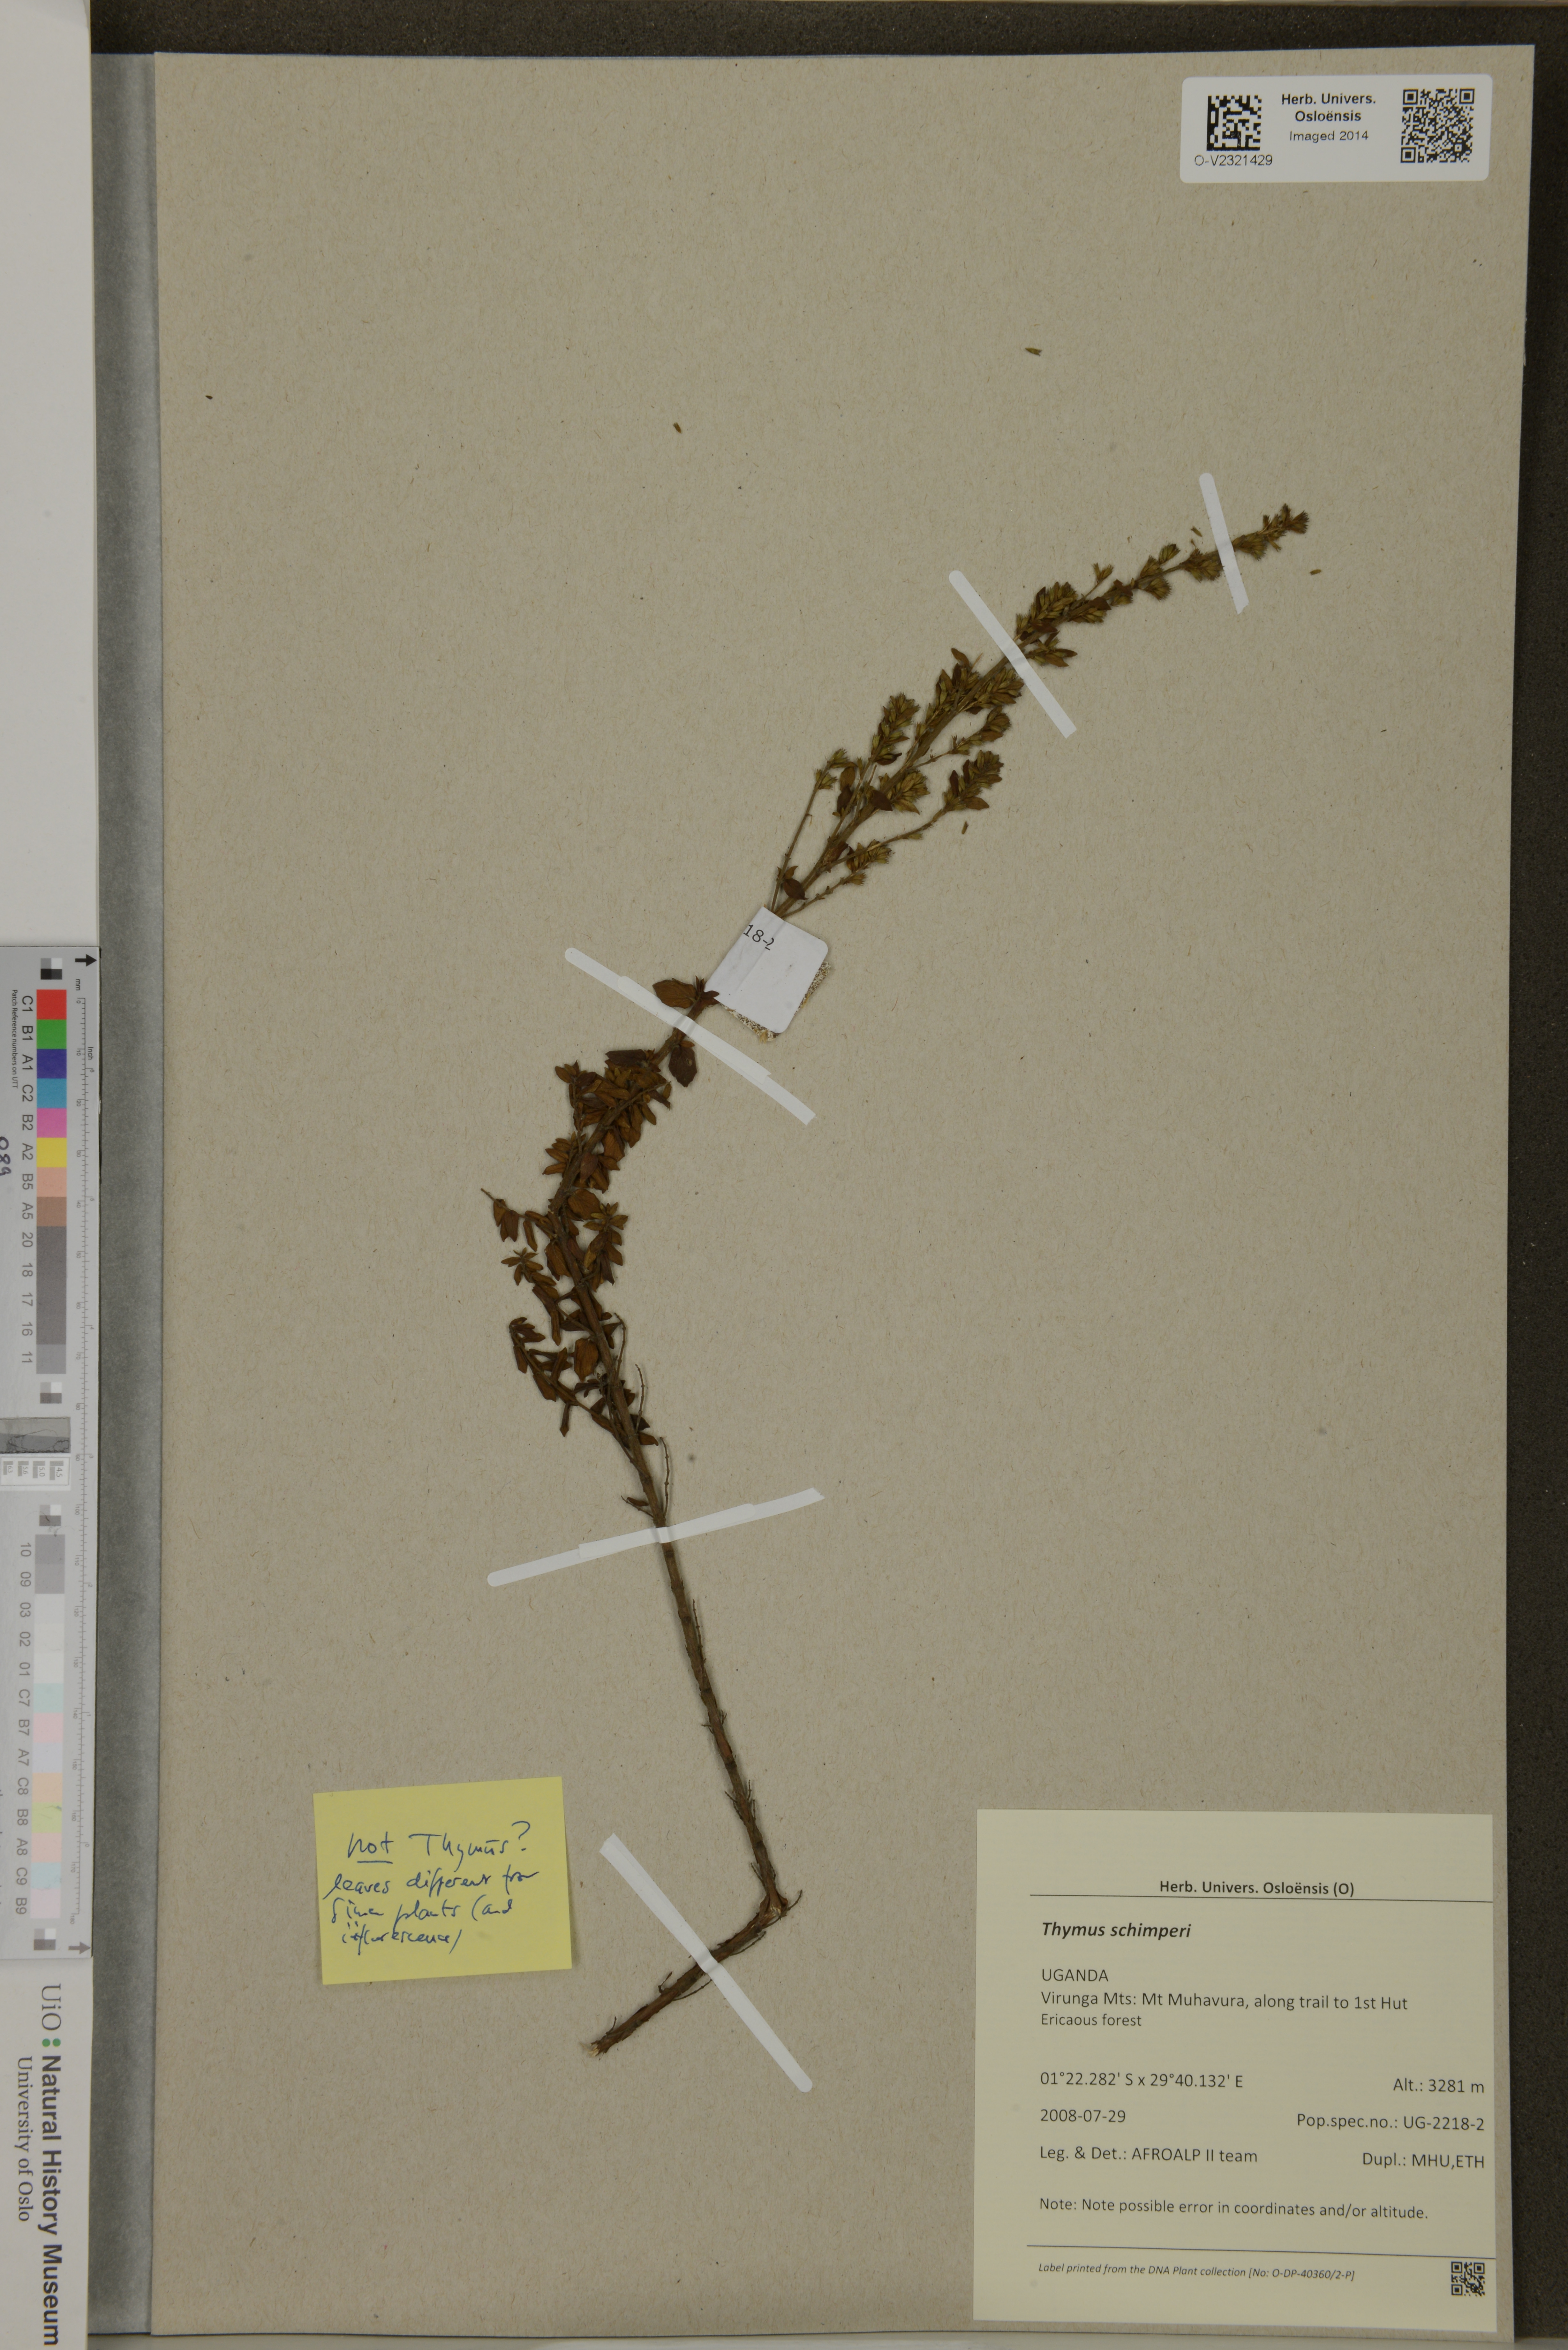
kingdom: Plantae
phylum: Tracheophyta
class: Magnoliopsida
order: Lamiales
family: Lamiaceae
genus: Thymus
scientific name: Thymus schimperi
